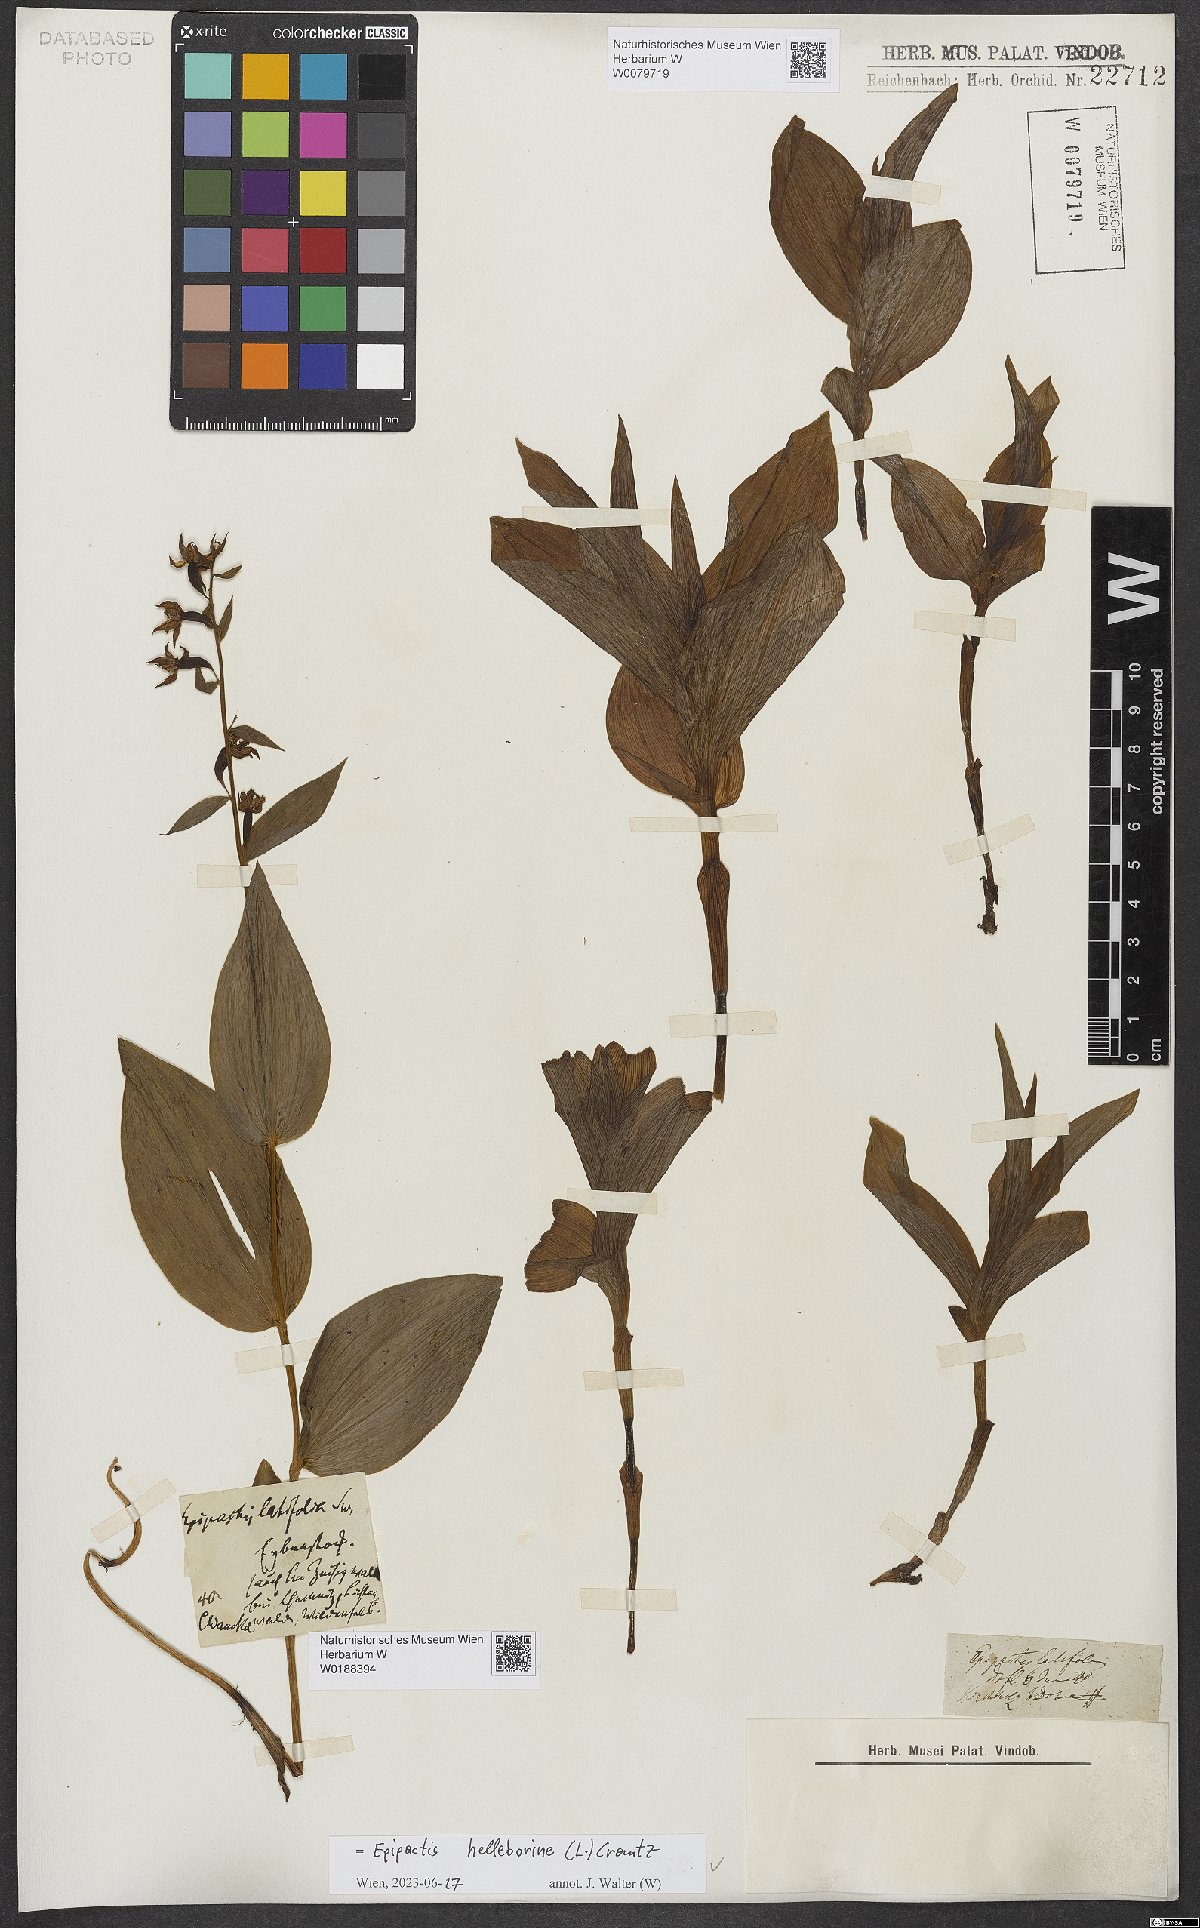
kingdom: Plantae
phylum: Tracheophyta
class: Liliopsida
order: Asparagales
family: Orchidaceae
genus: Epipactis
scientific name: Epipactis helleborine
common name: Broad-leaved helleborine
